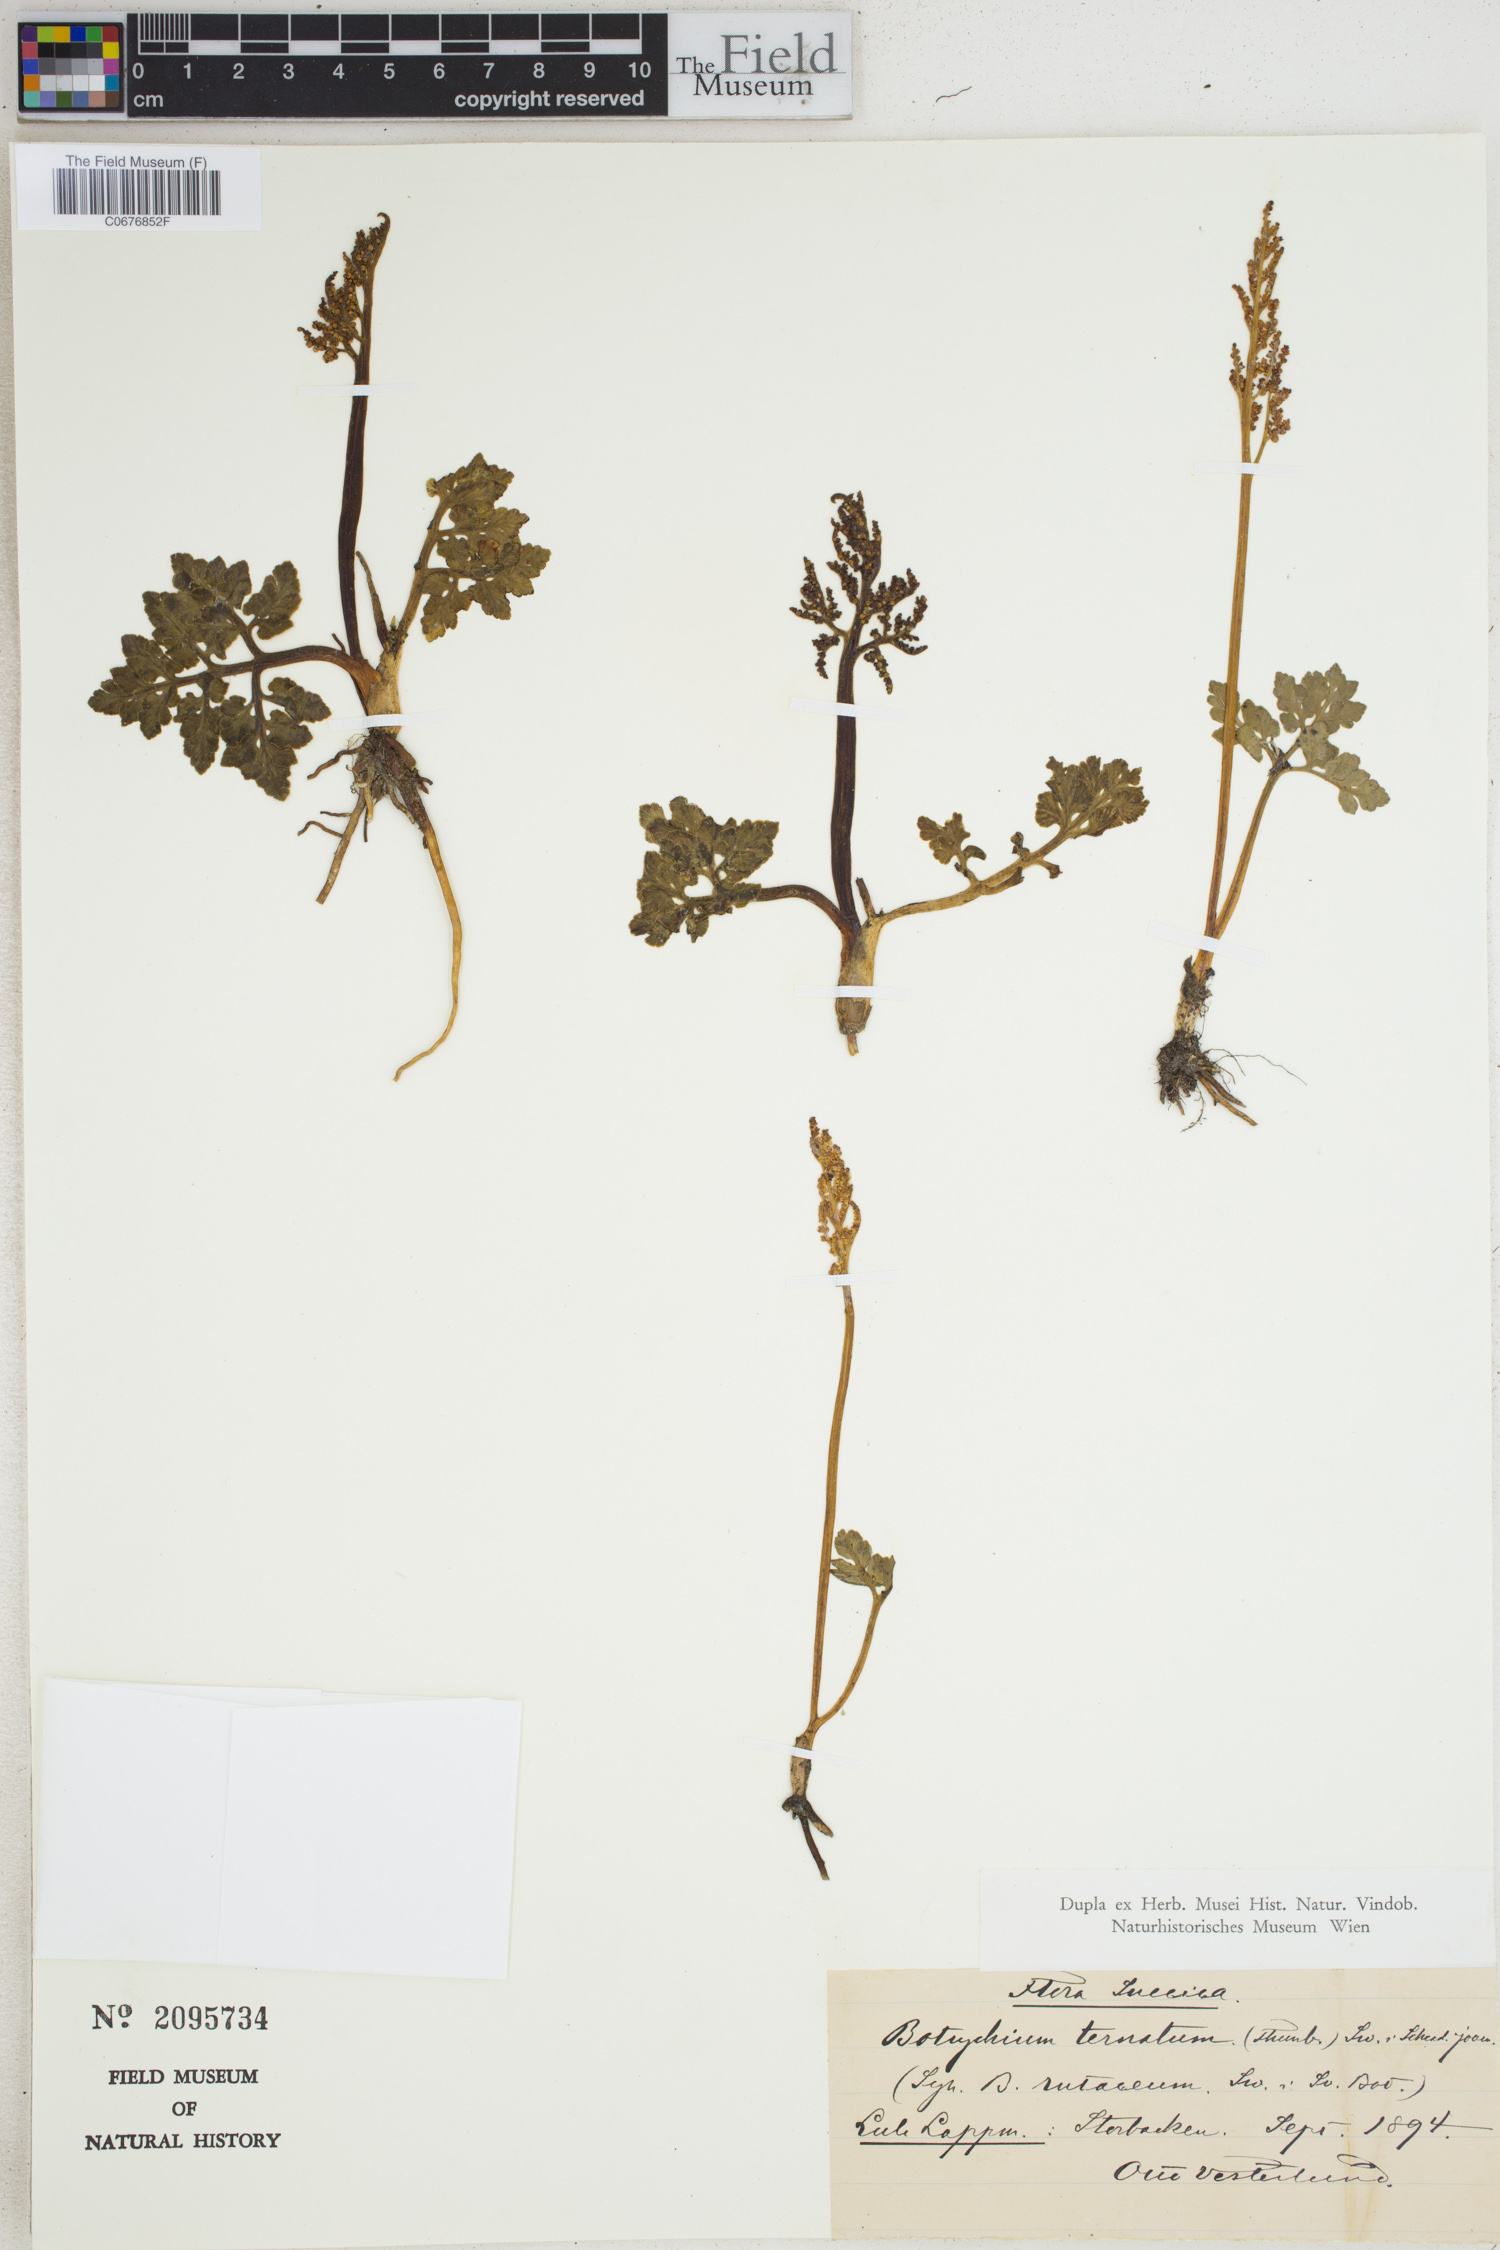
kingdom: Plantae
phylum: Tracheophyta
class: Polypodiopsida
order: Ophioglossales
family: Ophioglossaceae
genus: Sceptridium
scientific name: Sceptridium ternatum
